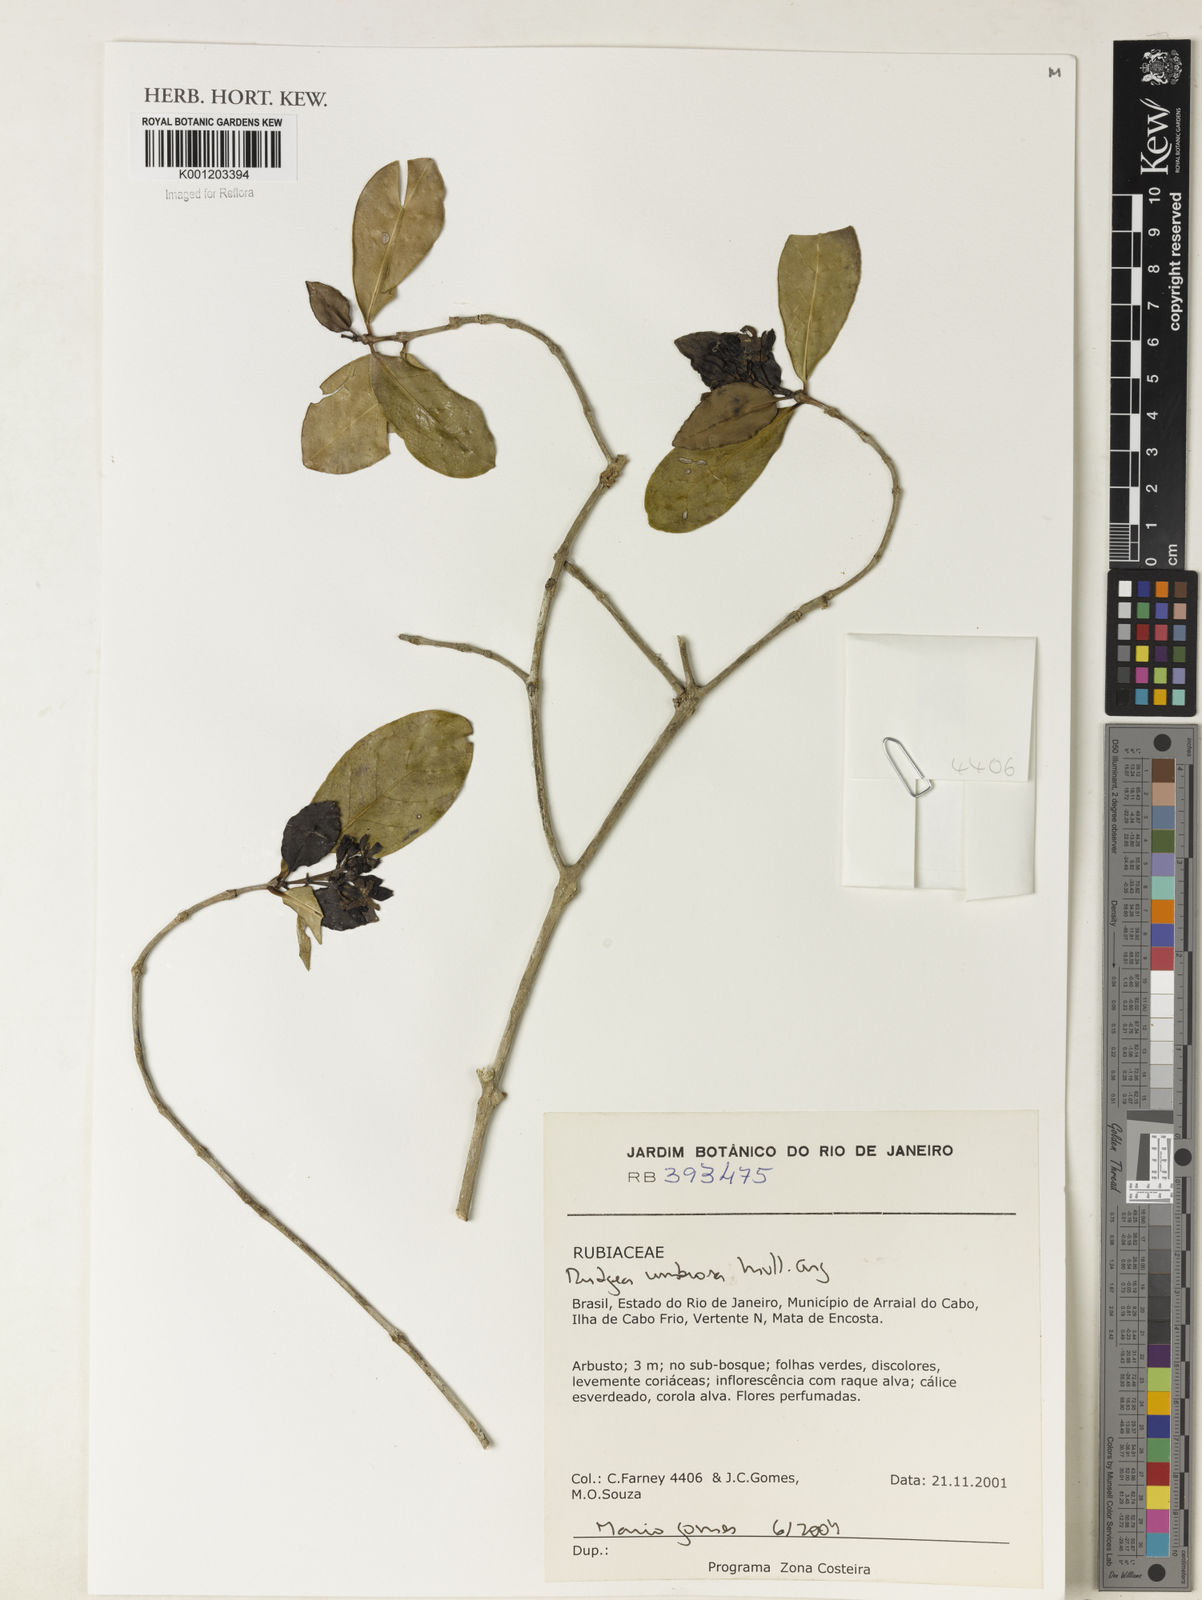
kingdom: Plantae
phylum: Tracheophyta
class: Magnoliopsida
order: Gentianales
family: Rubiaceae
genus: Rudgea
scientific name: Rudgea
